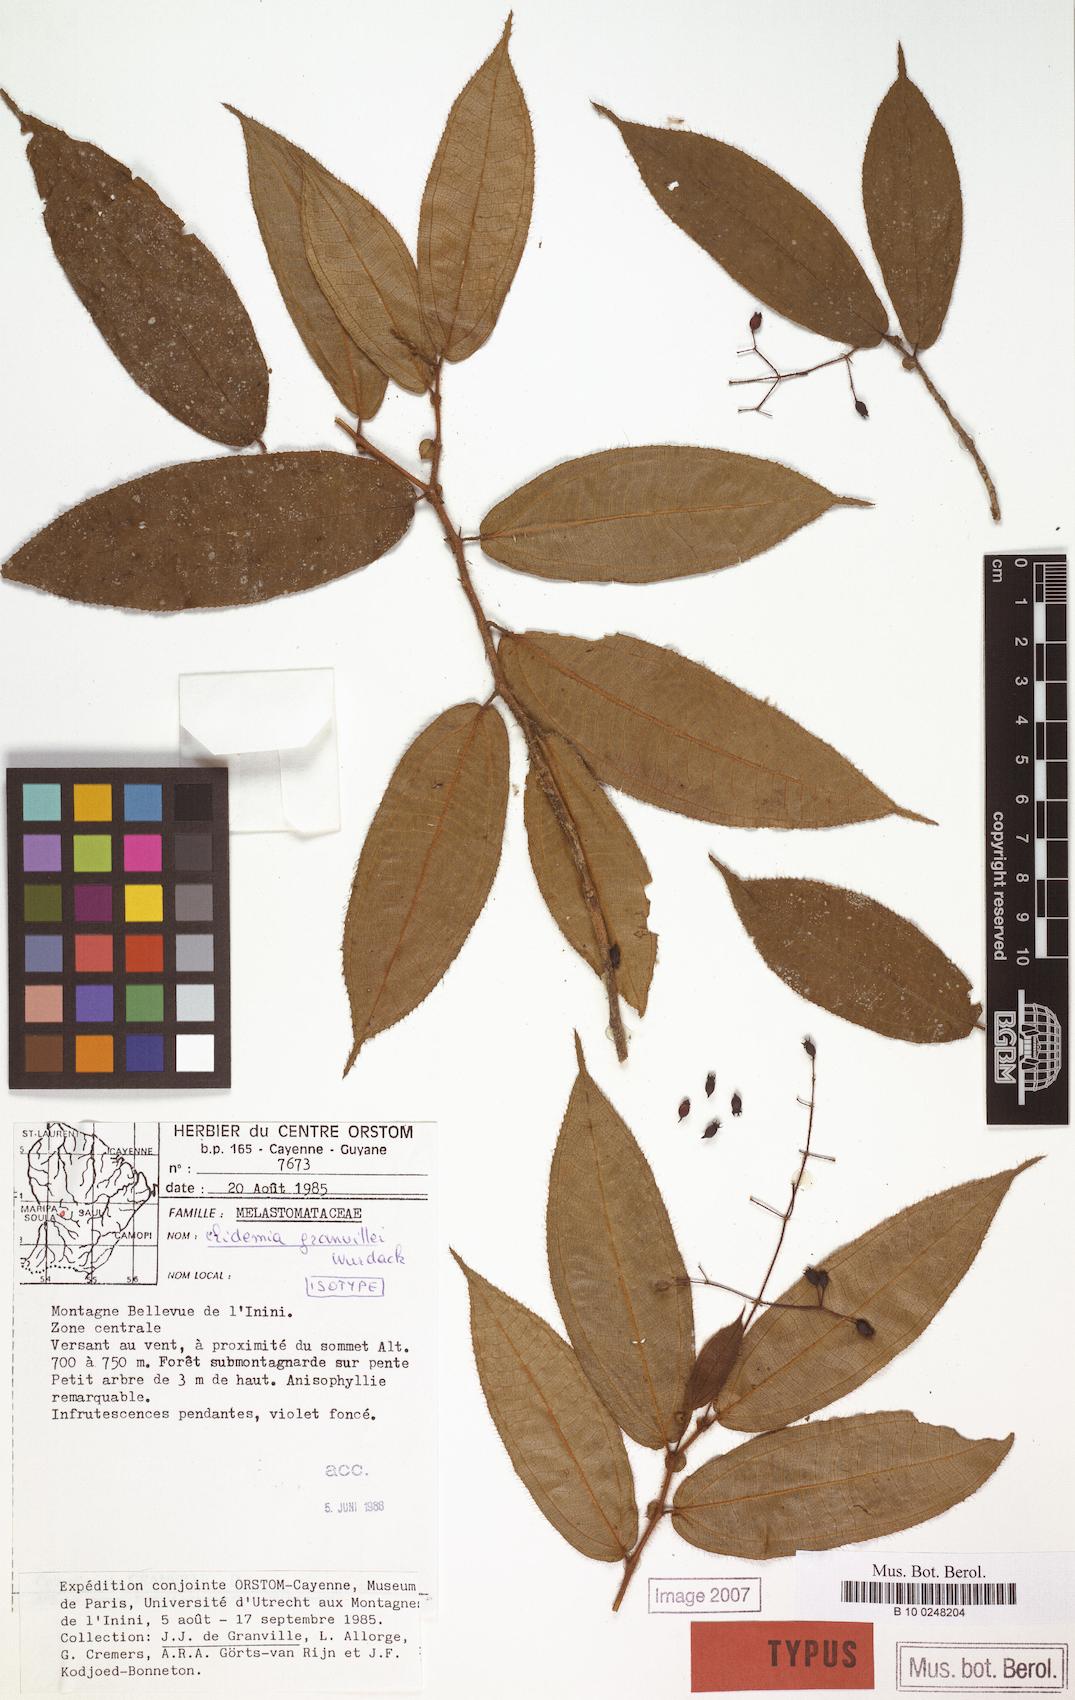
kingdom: Plantae
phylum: Tracheophyta
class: Magnoliopsida
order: Myrtales
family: Melastomataceae
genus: Miconia
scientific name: Miconia granvillei
